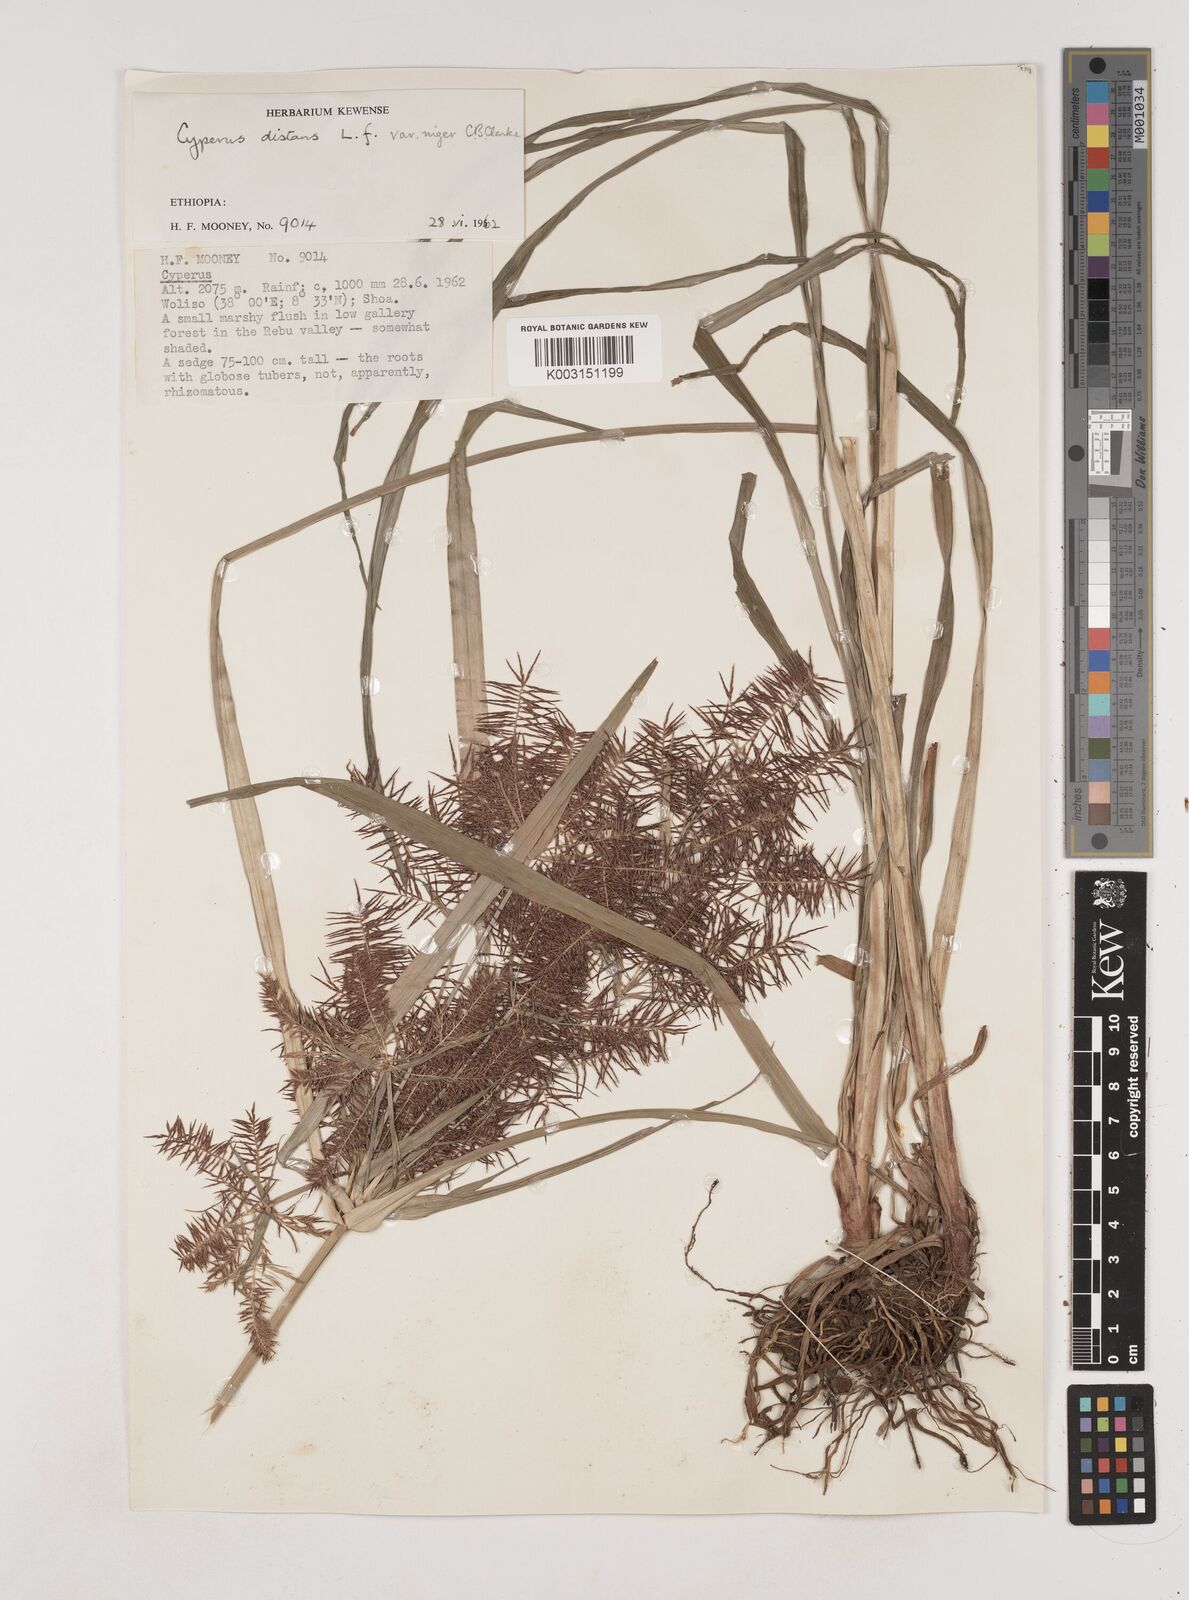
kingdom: Plantae
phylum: Tracheophyta
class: Liliopsida
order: Poales
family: Cyperaceae
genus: Cyperus
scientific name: Cyperus distans
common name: Slender cyperus
